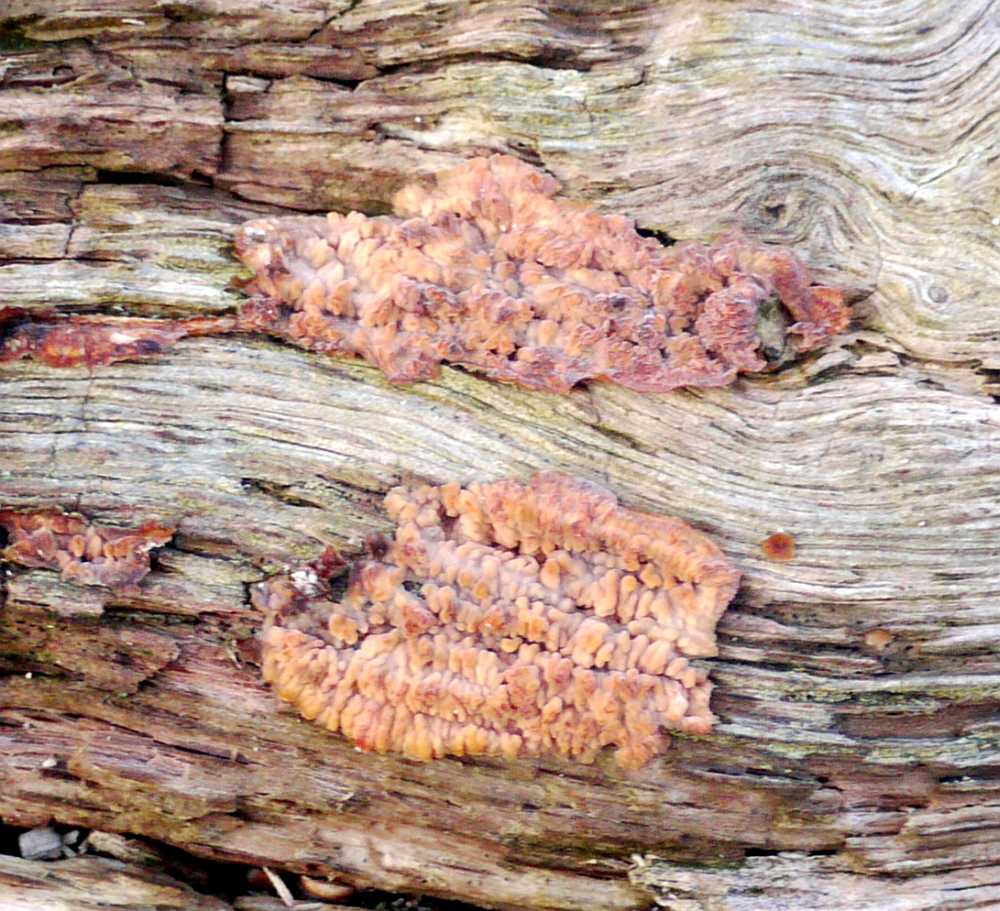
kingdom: Fungi
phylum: Basidiomycota
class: Agaricomycetes
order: Polyporales
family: Meruliaceae
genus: Phlebia
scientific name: Phlebia radiata
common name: stråle-åresvamp
